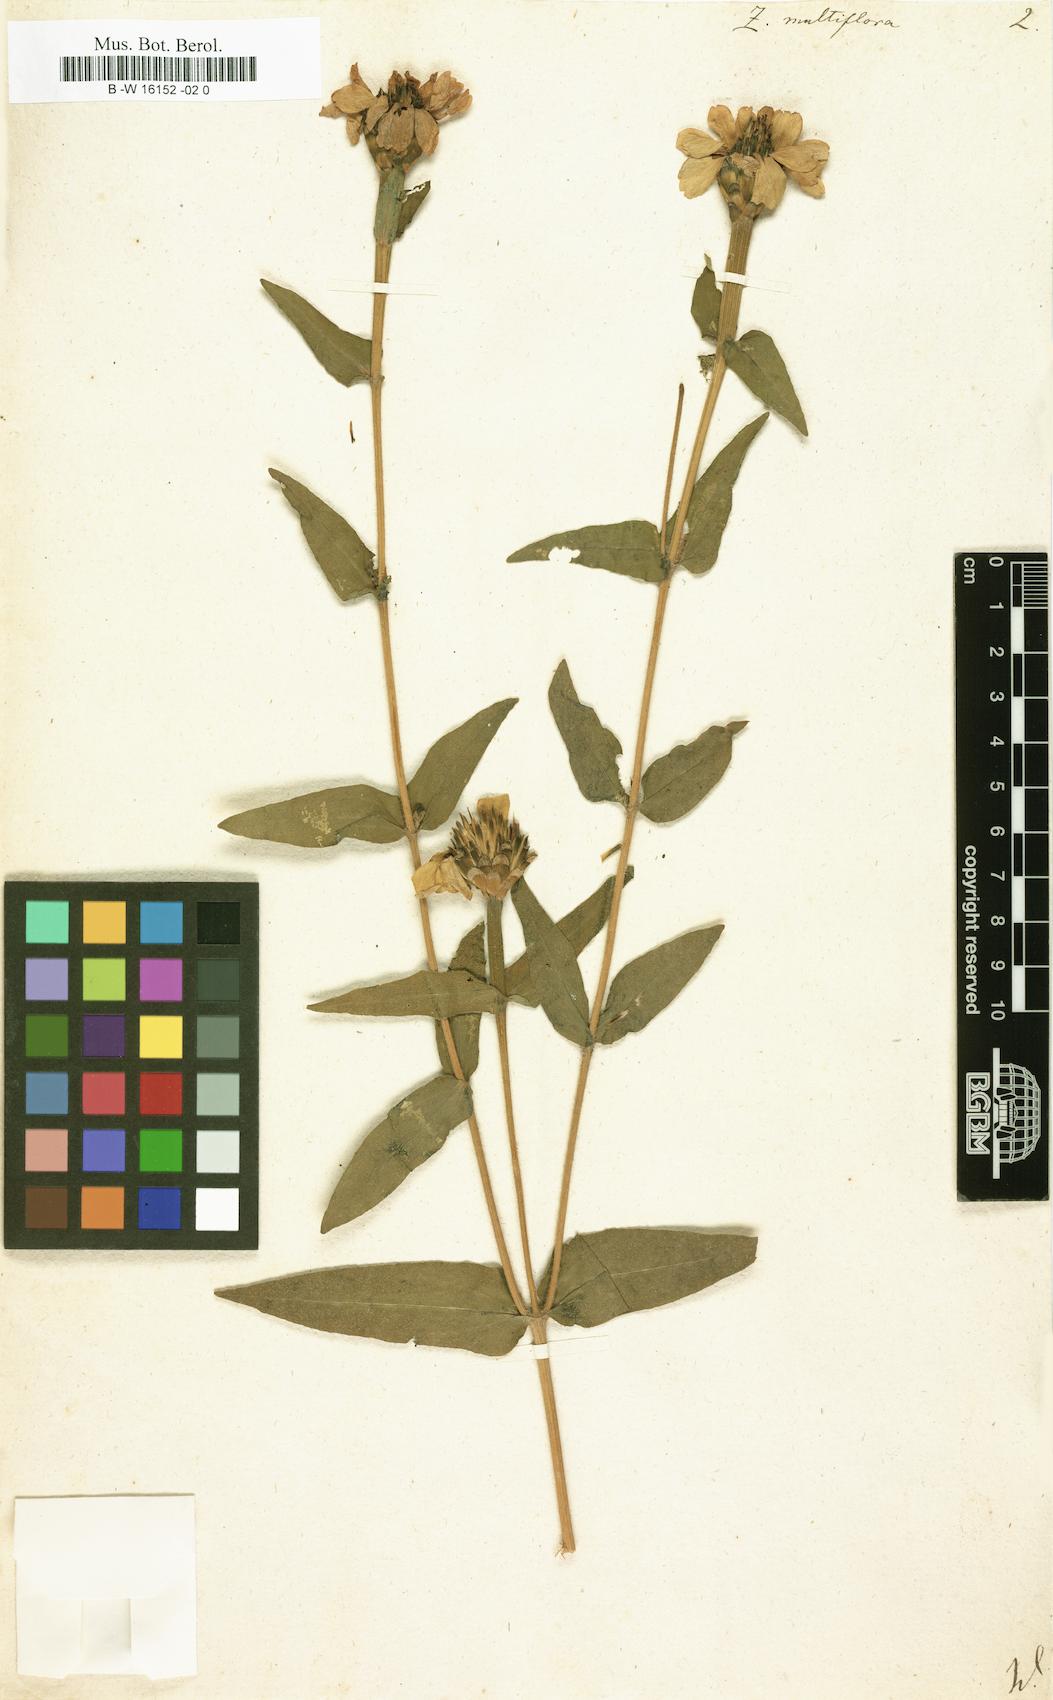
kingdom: Plantae
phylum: Tracheophyta
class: Magnoliopsida
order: Asterales
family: Asteraceae
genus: Zinnia
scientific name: Zinnia peruviana
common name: Peruvian zinnia
